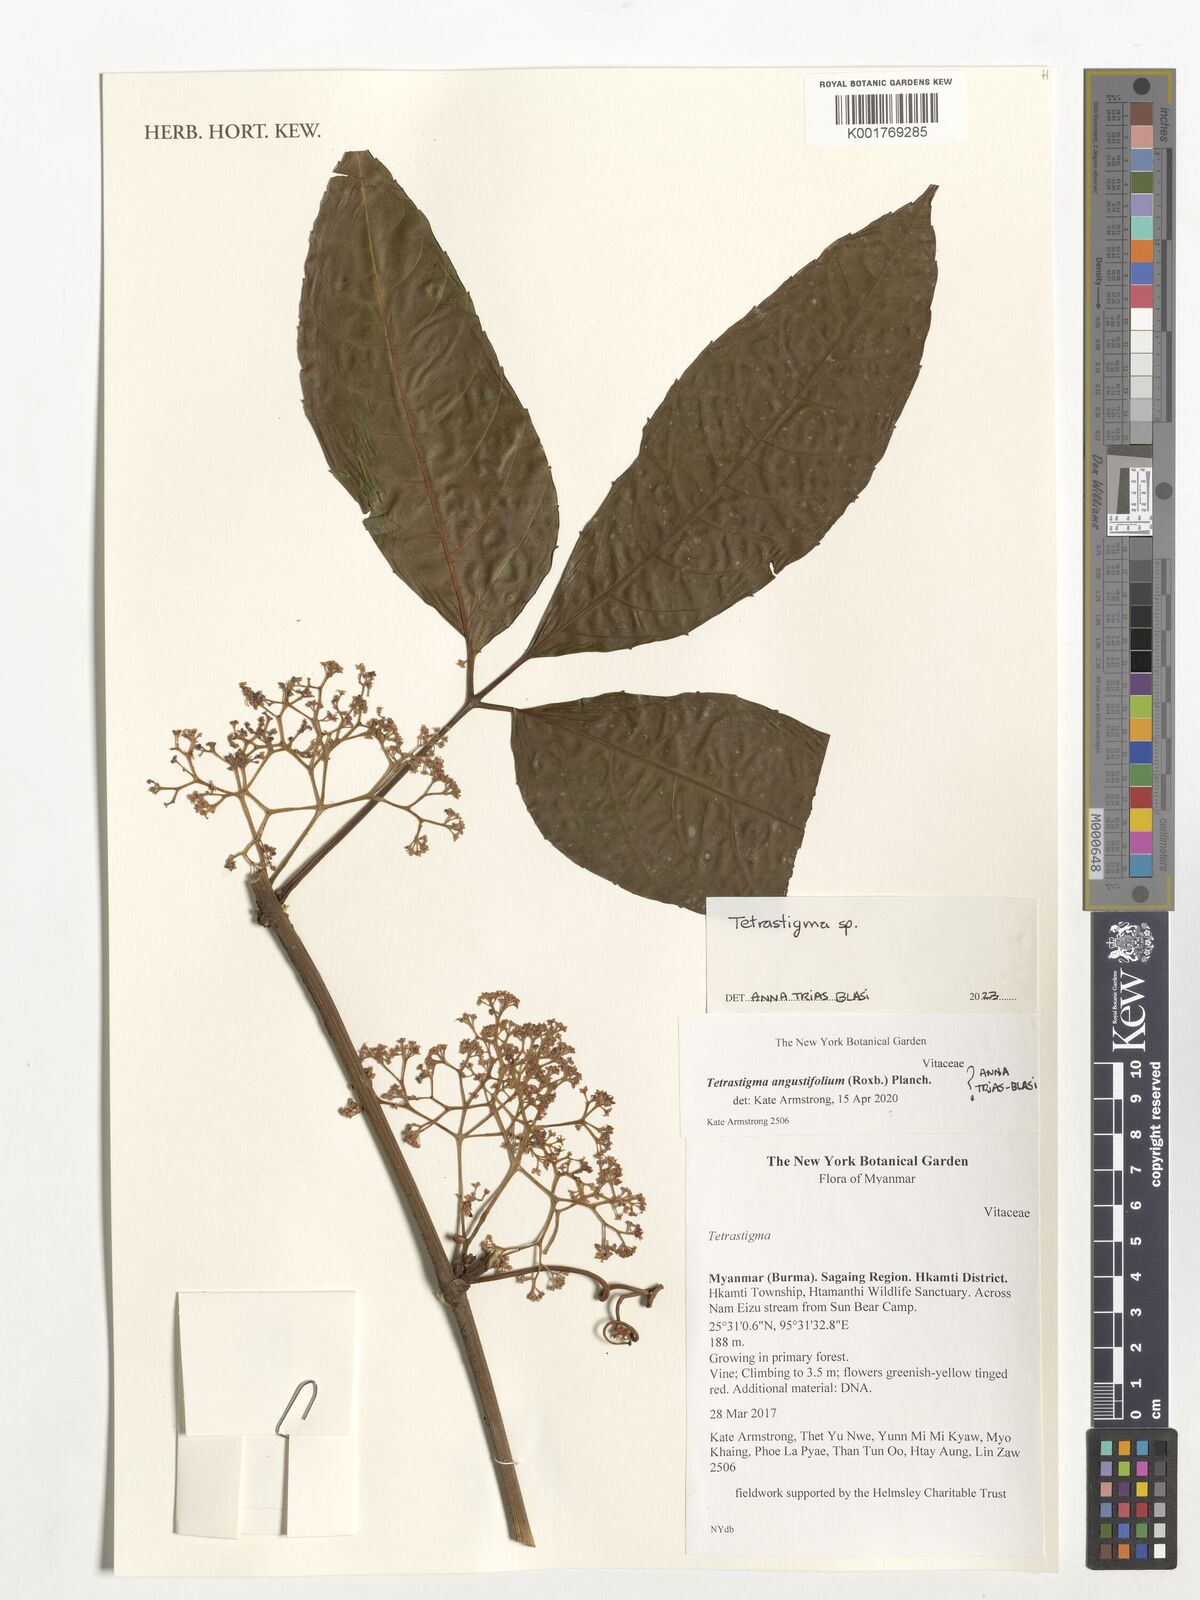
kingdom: Plantae
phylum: Tracheophyta
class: Magnoliopsida
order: Vitales
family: Vitaceae
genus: Tetrastigma
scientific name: Tetrastigma
